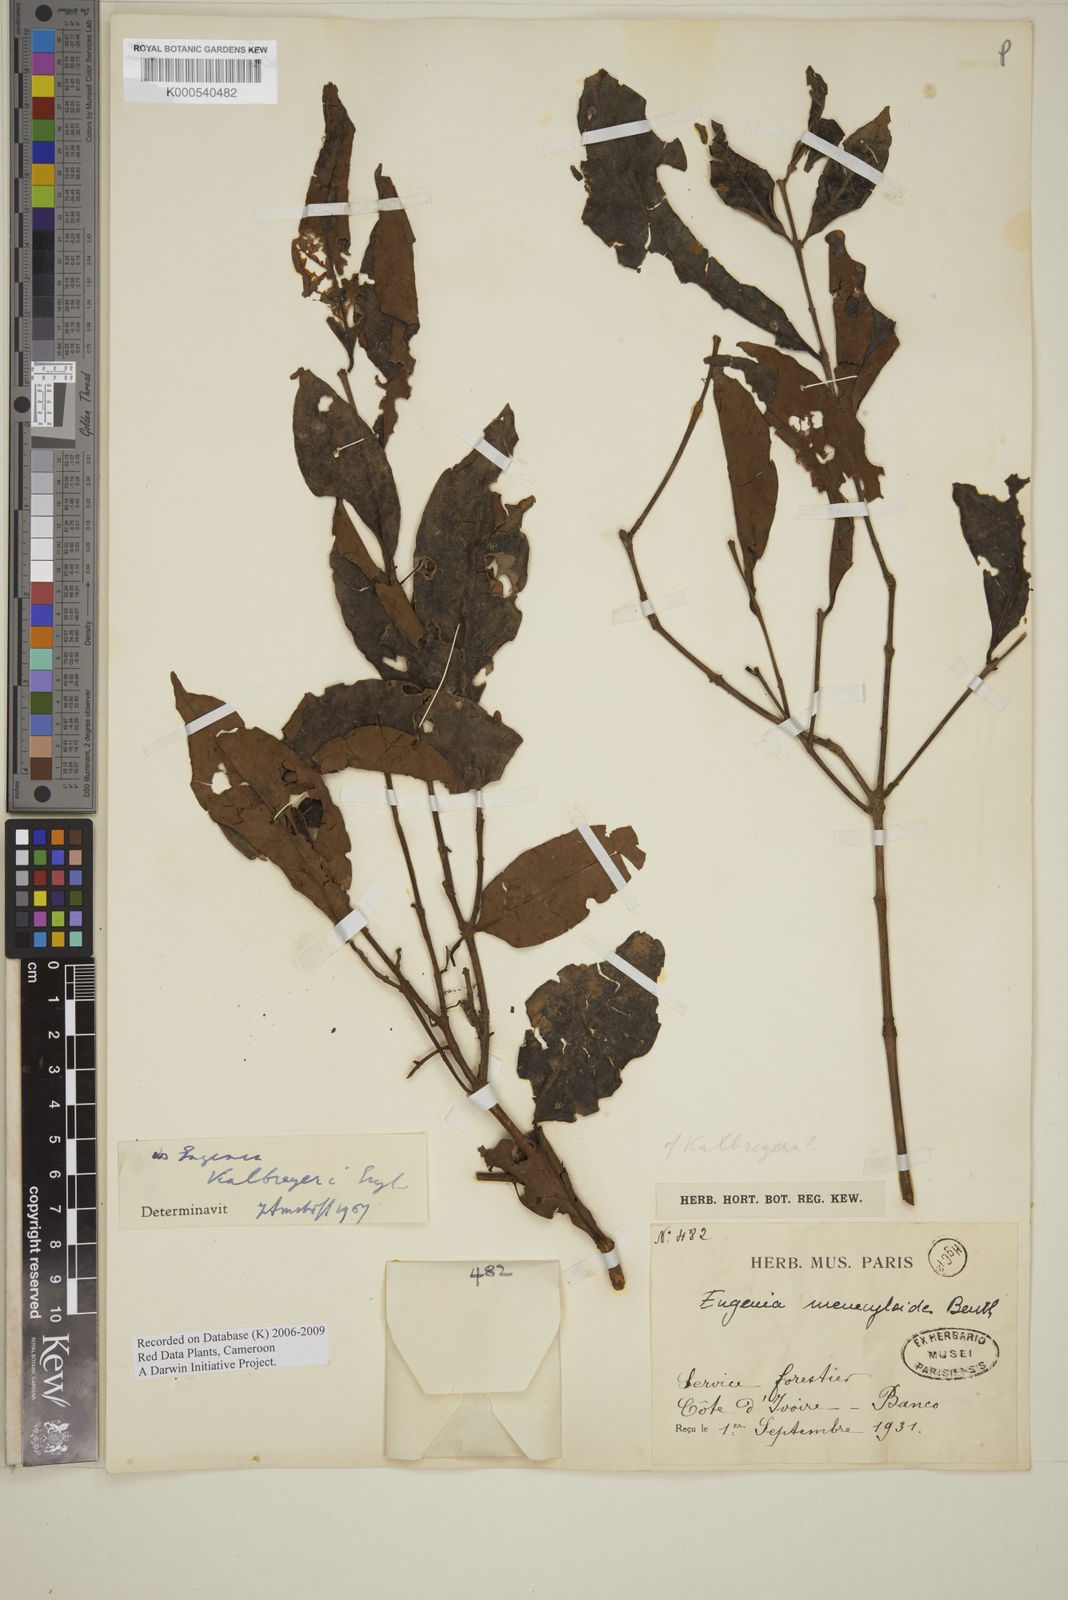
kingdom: Plantae
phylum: Tracheophyta
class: Magnoliopsida
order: Myrtales
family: Myrtaceae
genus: Eugenia
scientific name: Eugenia kalbreyeri
